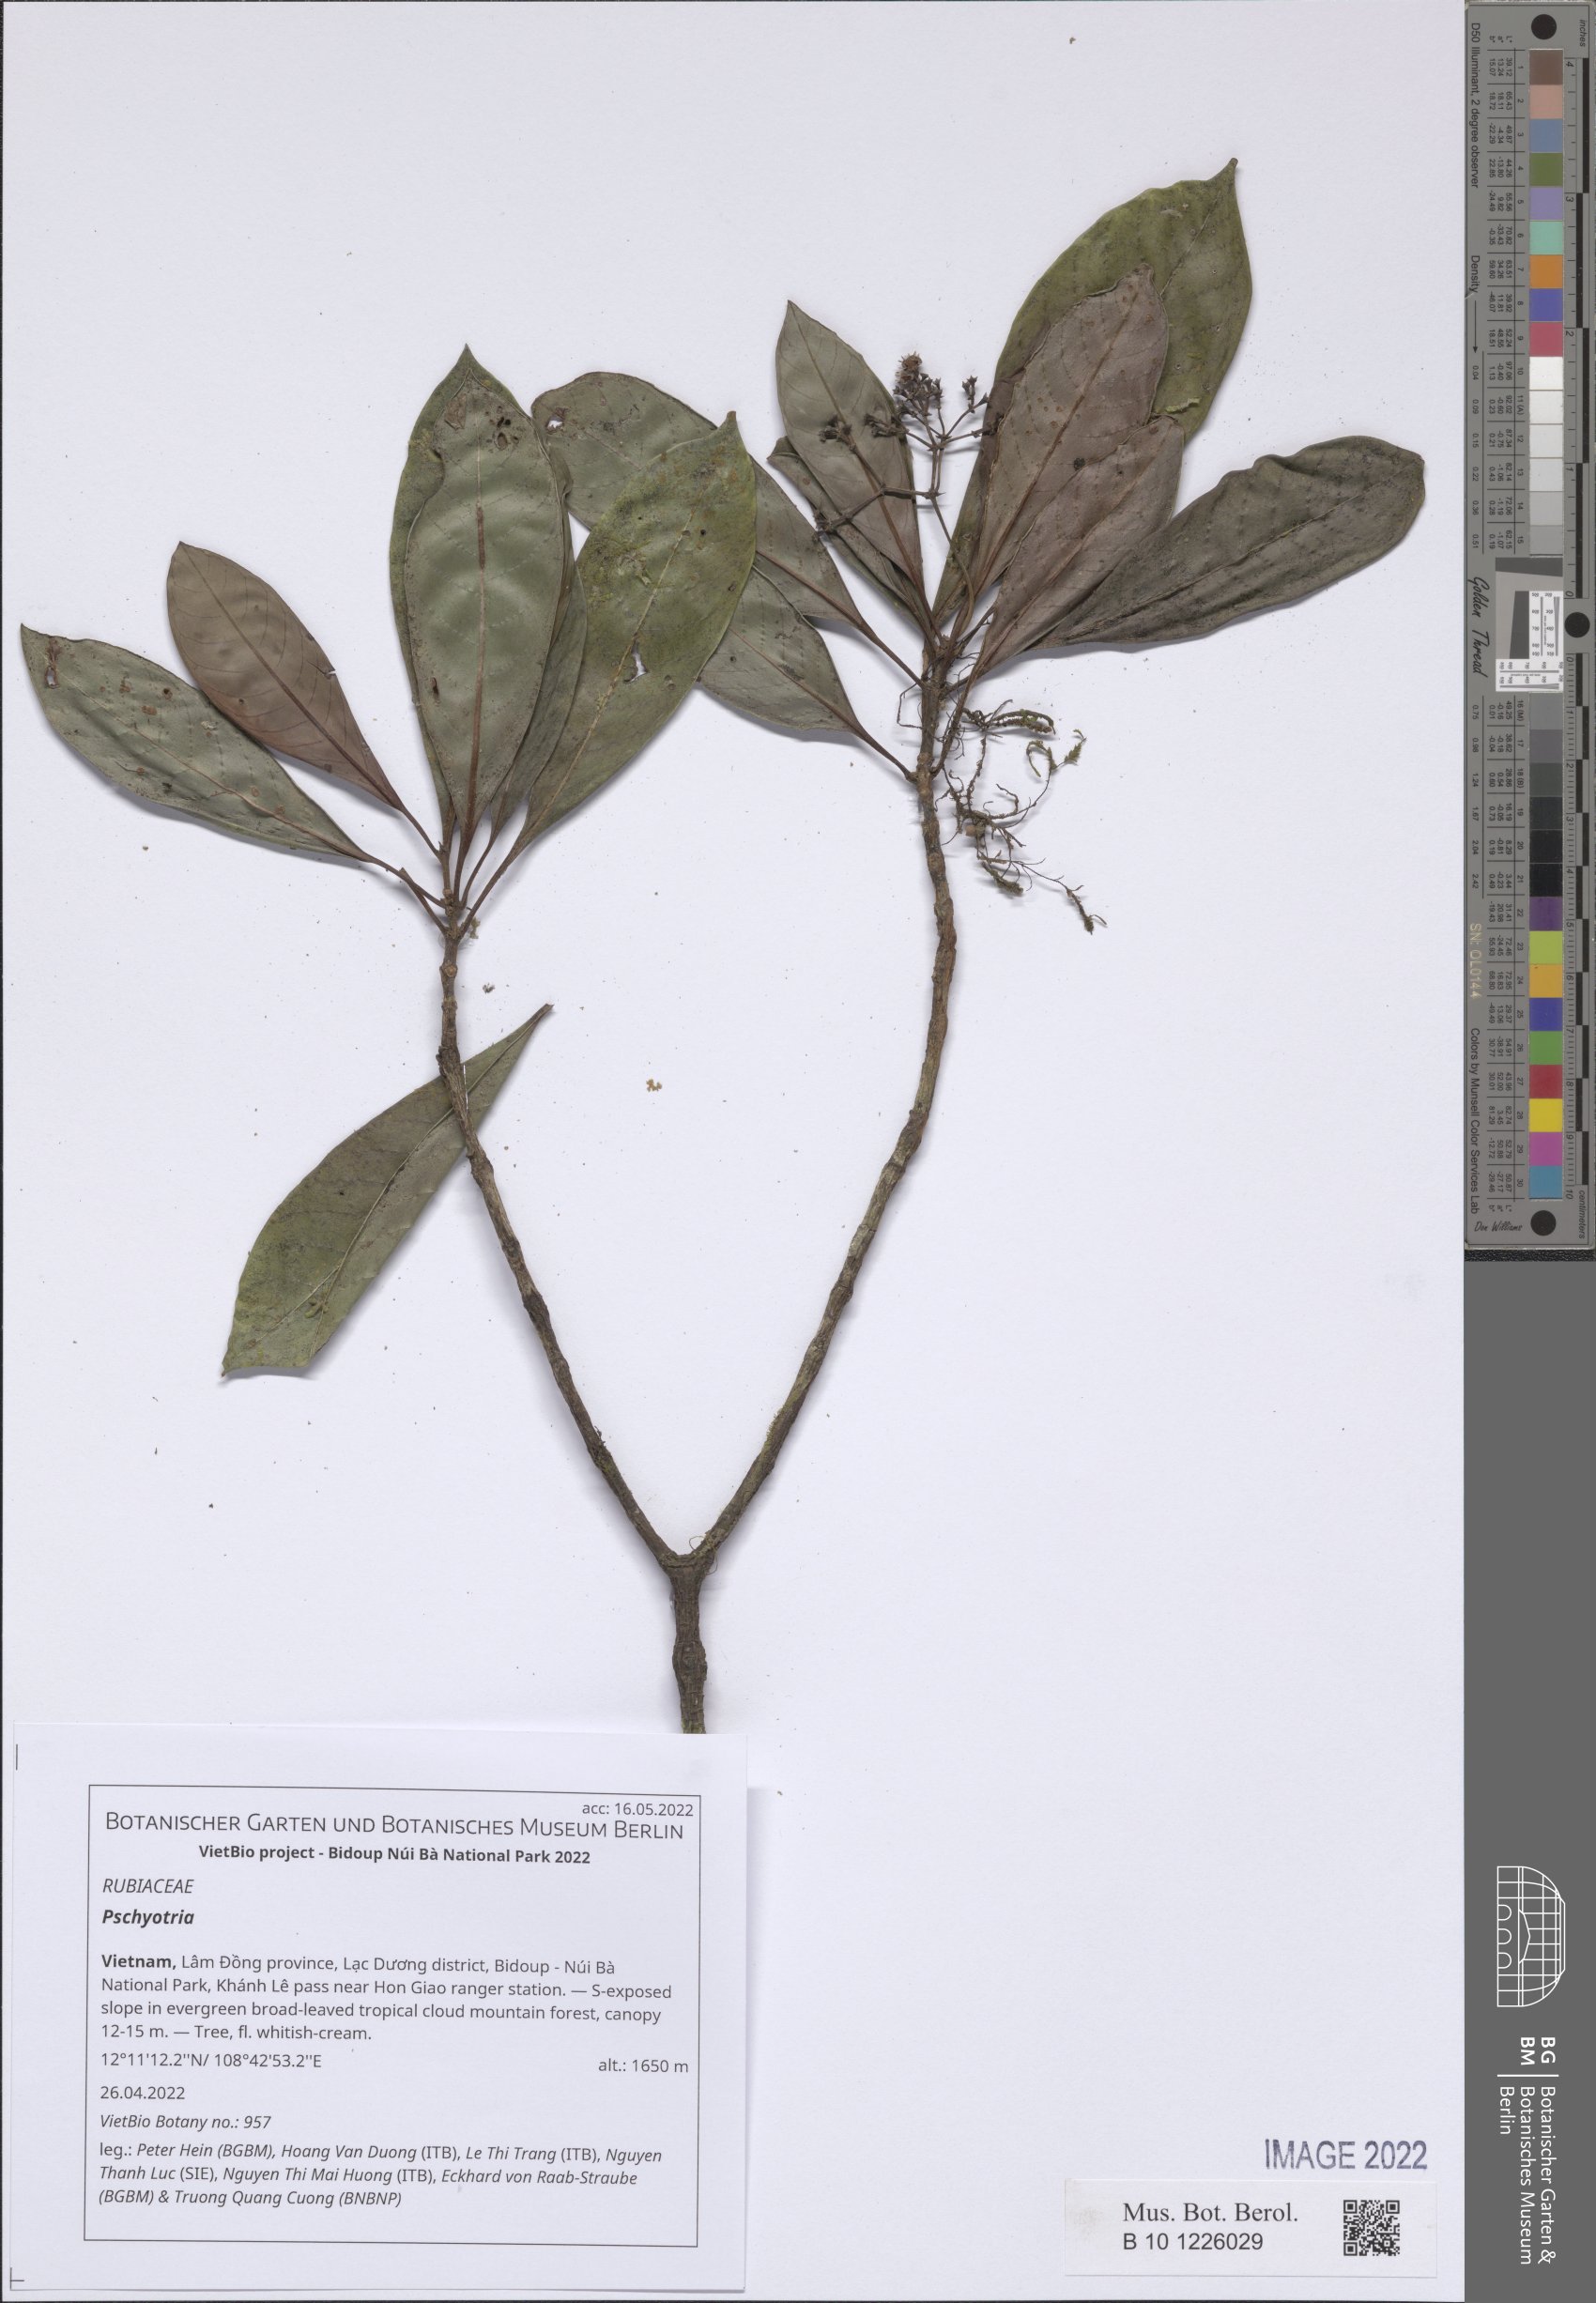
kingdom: Plantae
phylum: Tracheophyta
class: Magnoliopsida
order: Gentianales
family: Rubiaceae
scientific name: Rubiaceae
